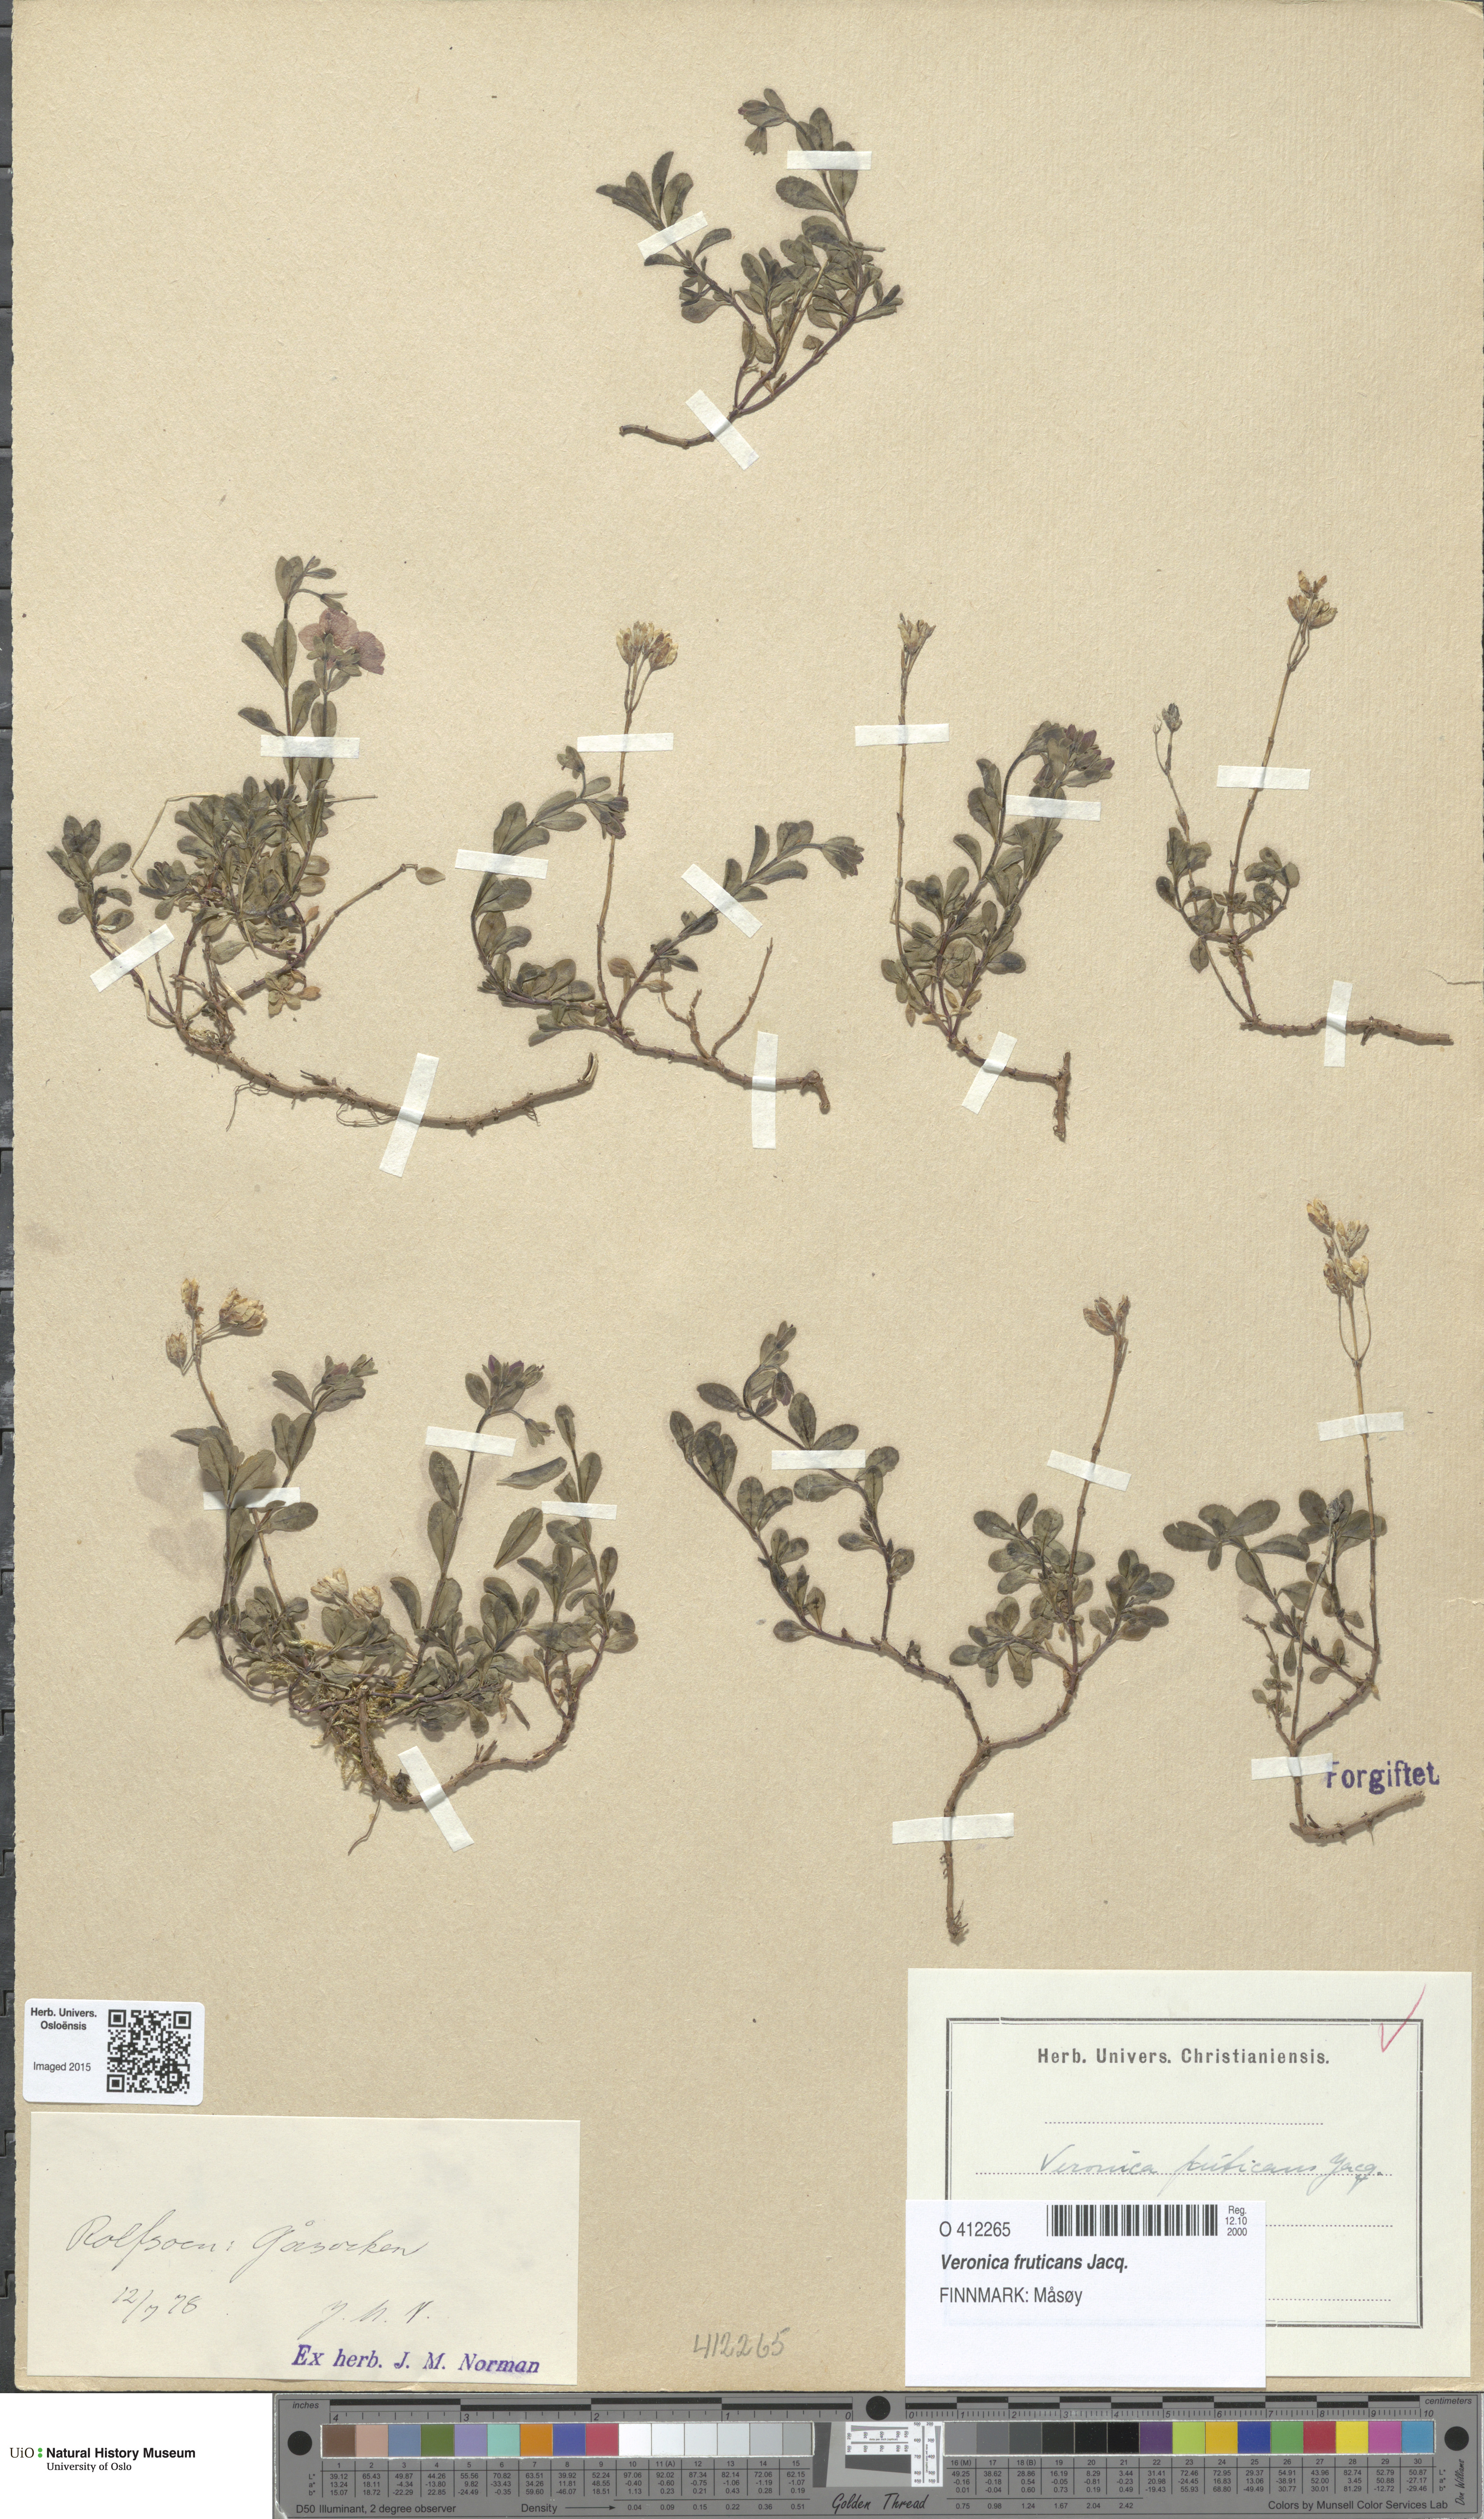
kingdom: Plantae
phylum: Tracheophyta
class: Magnoliopsida
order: Lamiales
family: Plantaginaceae
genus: Veronica
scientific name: Veronica fruticans
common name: Rock speedwell
